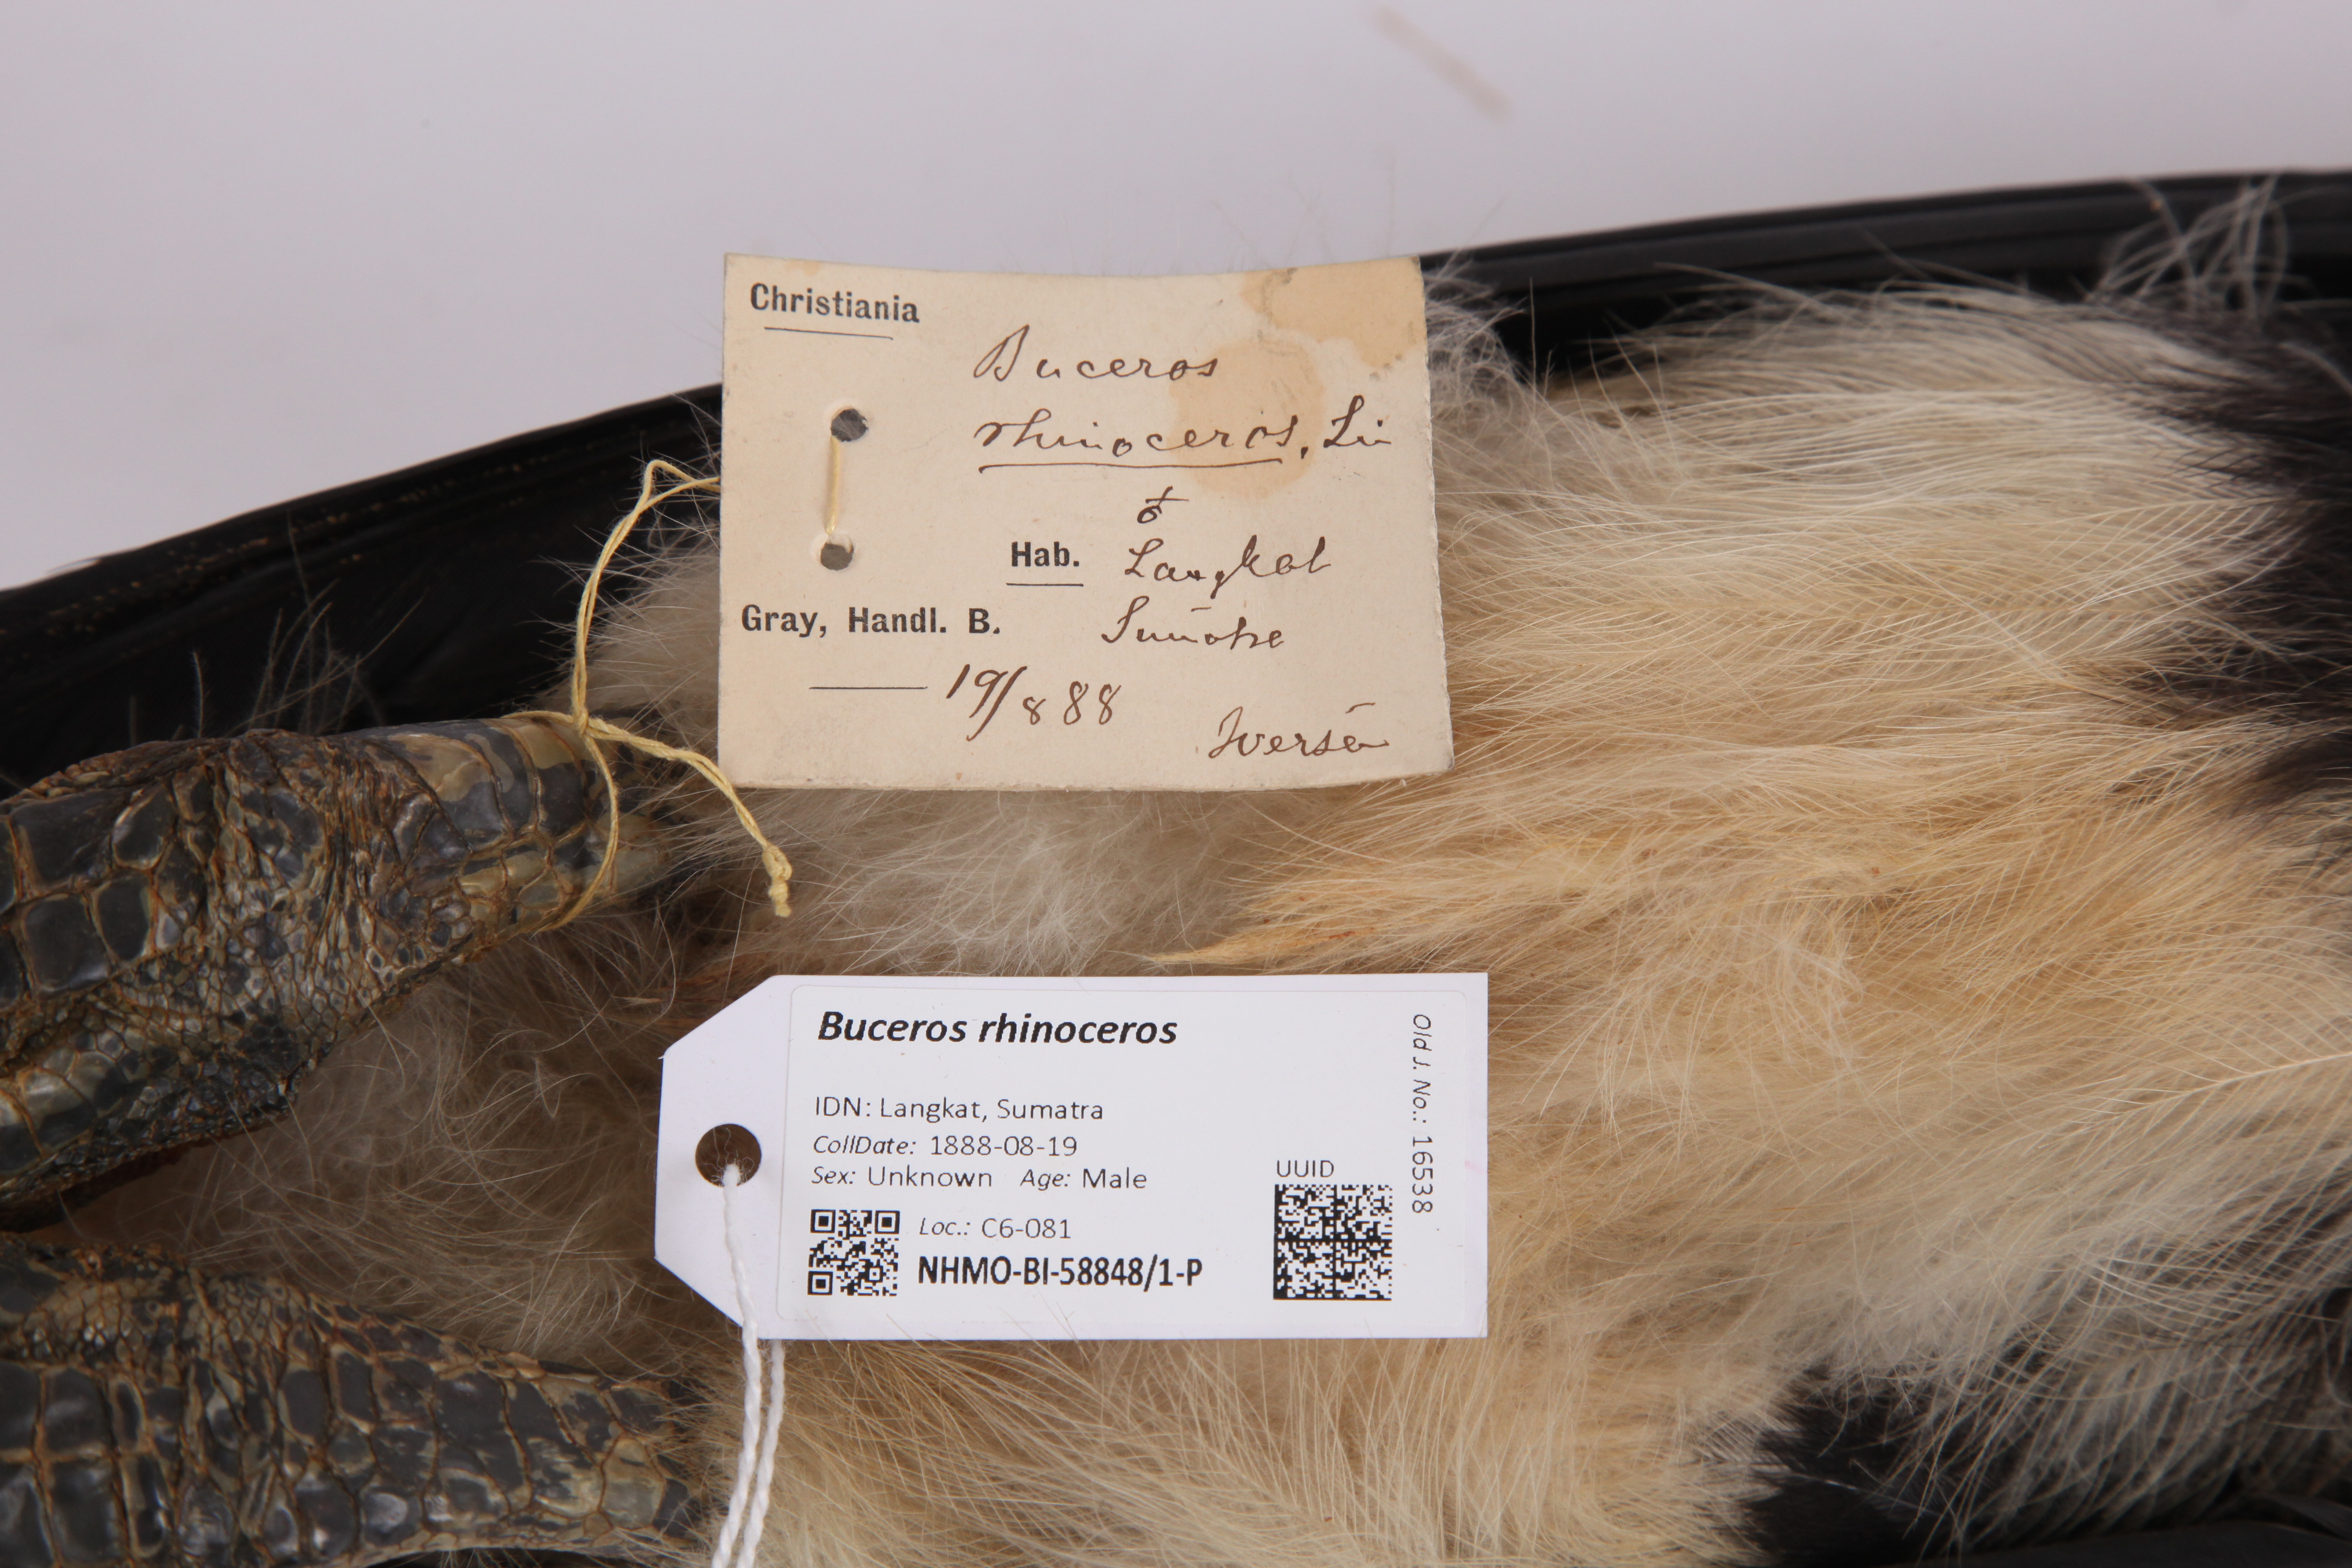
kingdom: Animalia
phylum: Chordata
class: Aves
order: Bucerotiformes
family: Bucerotidae
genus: Buceros
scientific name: Buceros rhinoceros
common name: Rhinoceros hornbill
